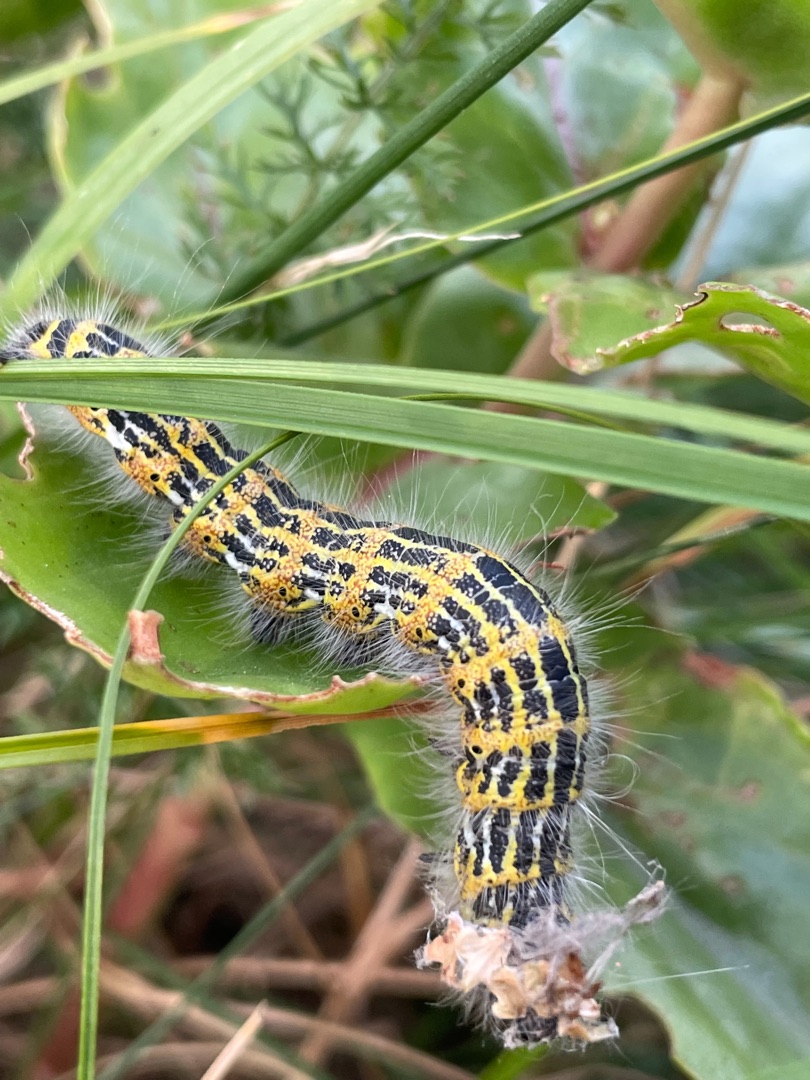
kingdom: Animalia
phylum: Arthropoda
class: Insecta
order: Lepidoptera
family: Notodontidae
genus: Phalera
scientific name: Phalera bucephala
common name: Måneplet
